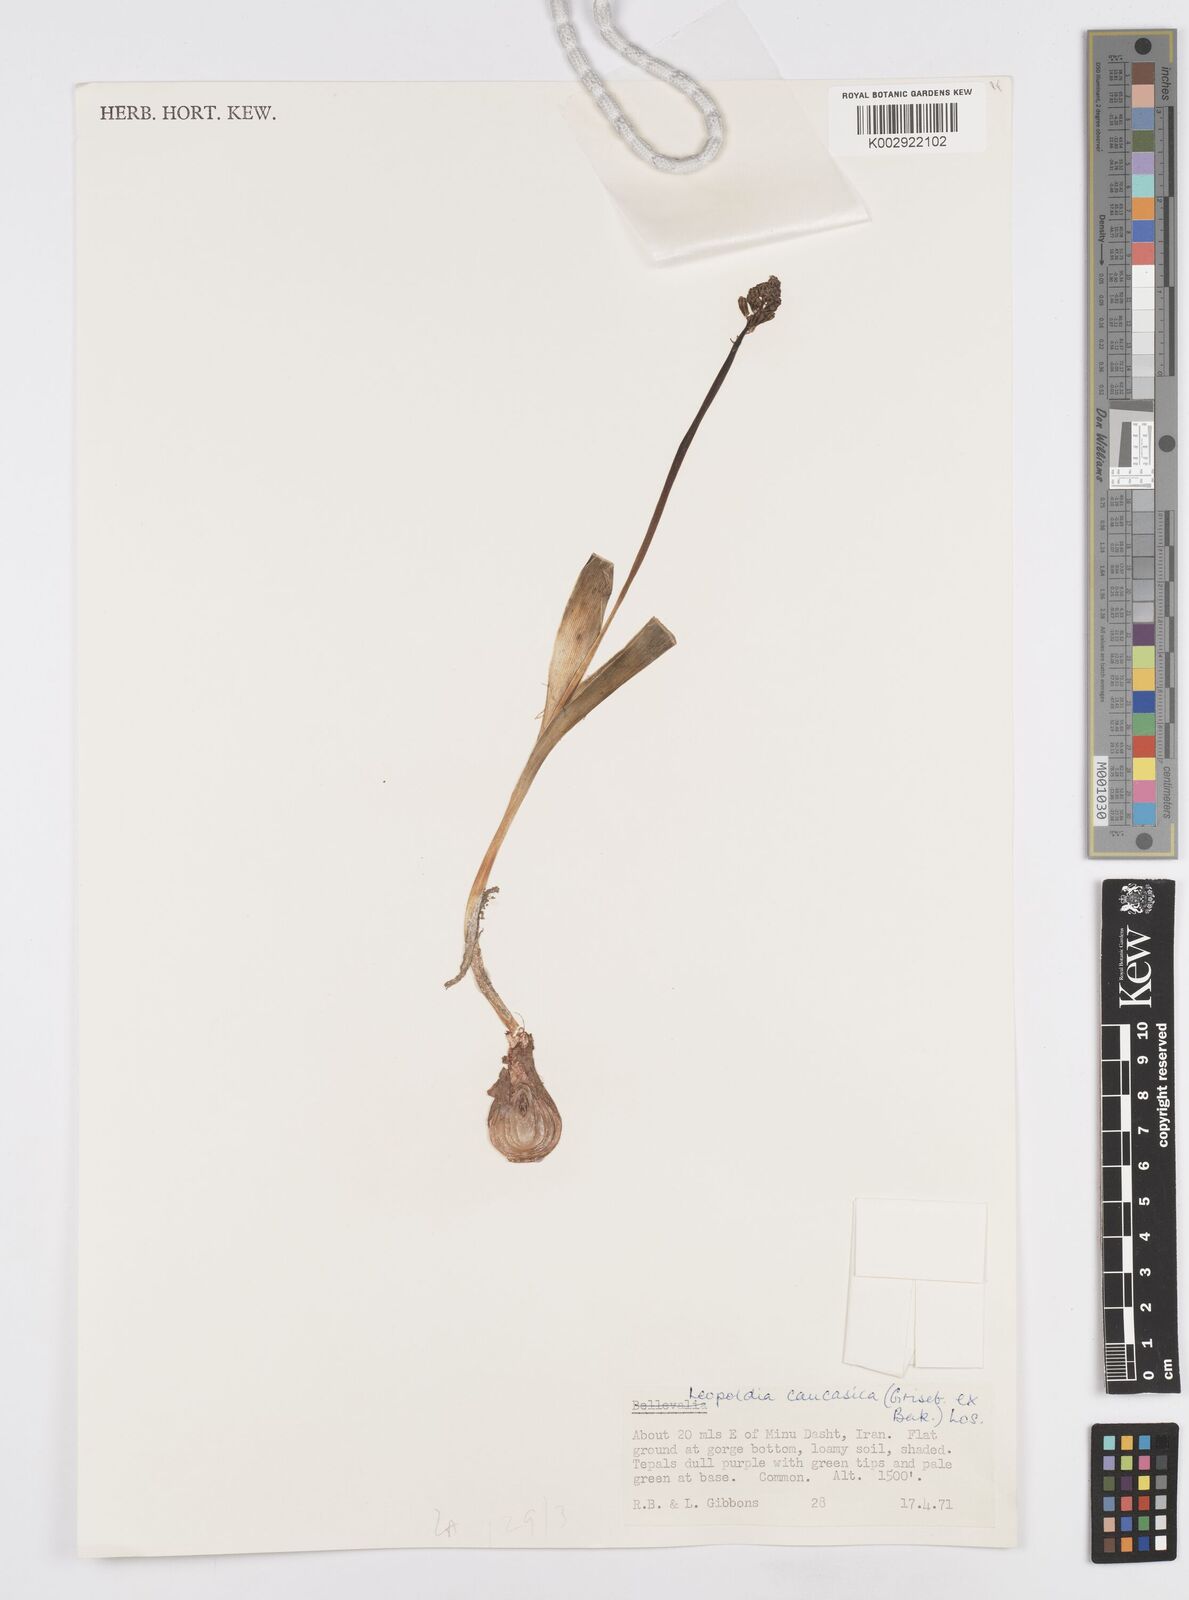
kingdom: Plantae
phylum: Tracheophyta
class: Liliopsida
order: Asparagales
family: Asparagaceae
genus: Muscari
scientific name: Muscari caucasicum
